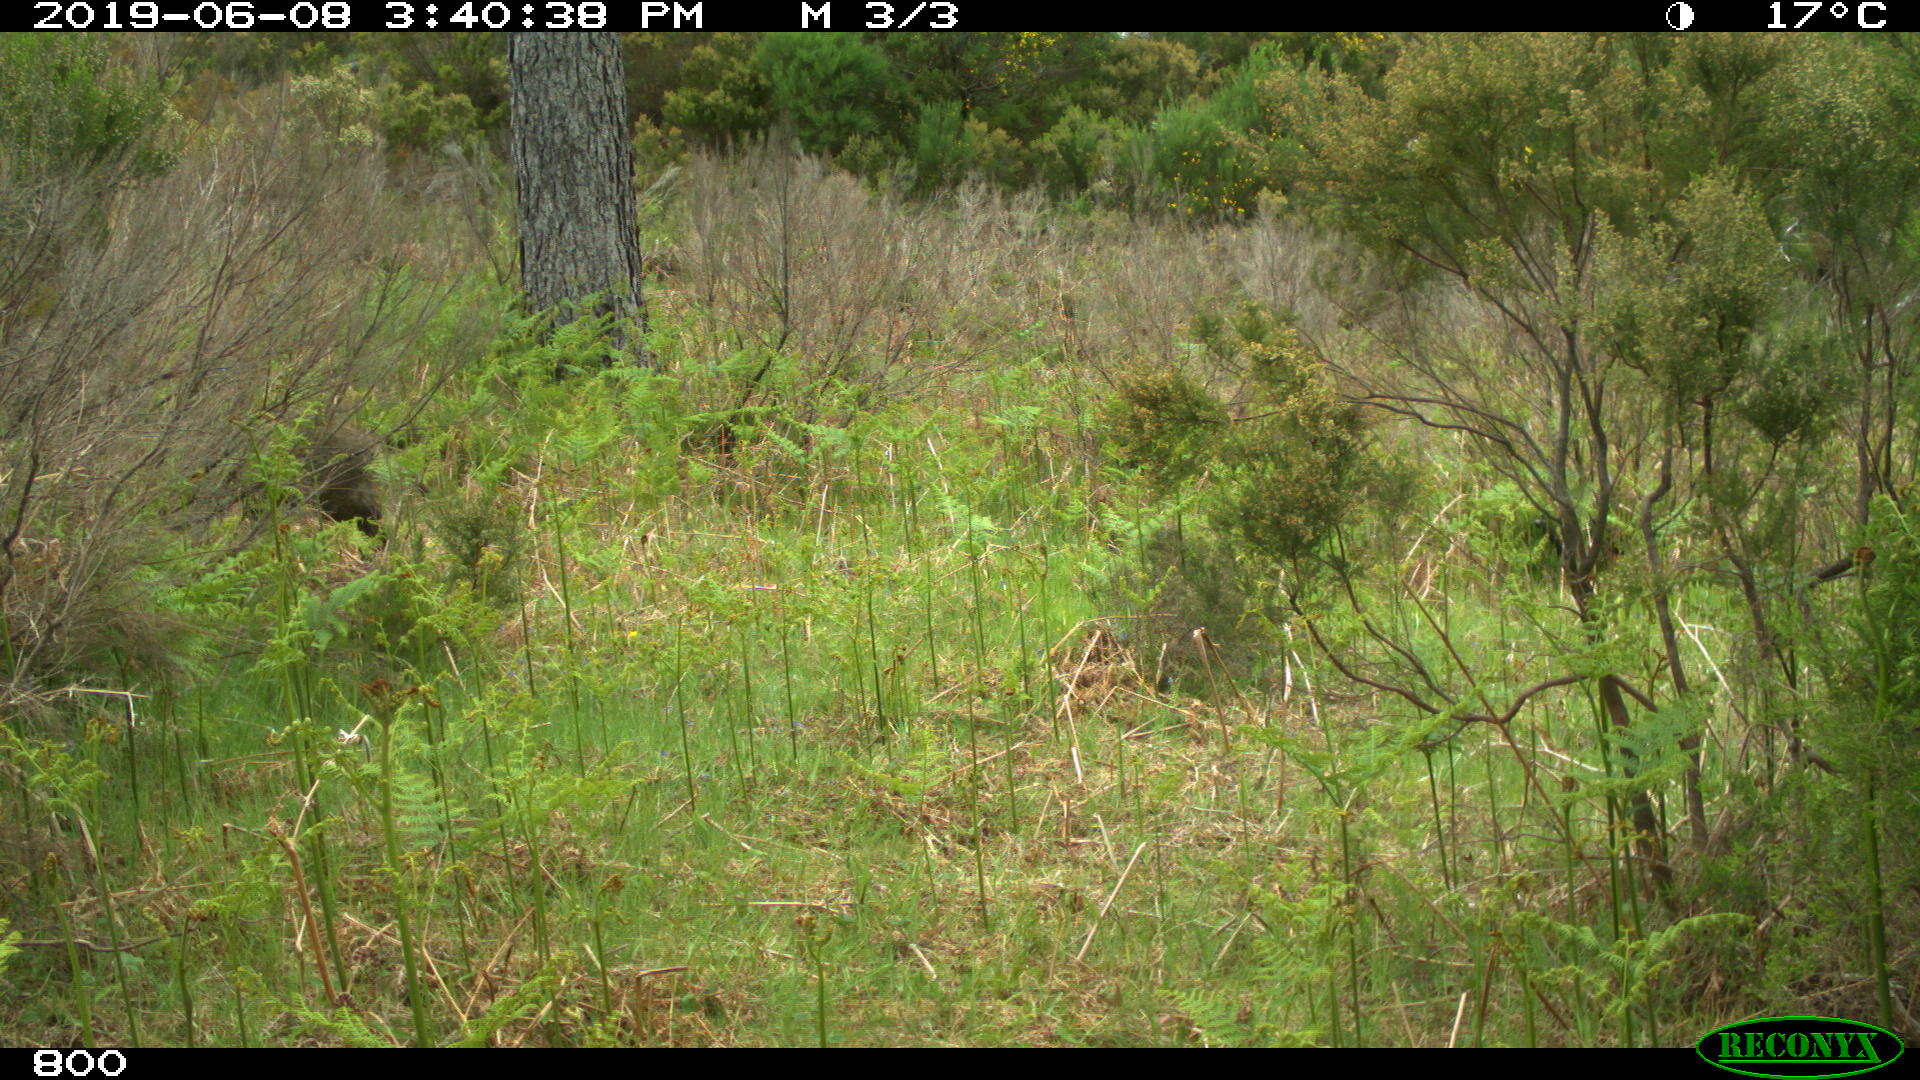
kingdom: Animalia
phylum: Chordata
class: Mammalia
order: Artiodactyla
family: Suidae
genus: Sus
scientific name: Sus scrofa
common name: Wild boar
